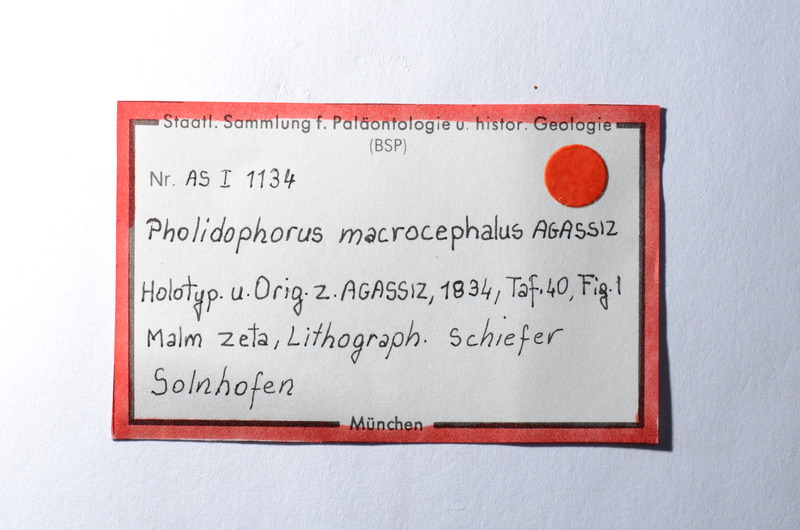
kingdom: Animalia
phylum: Chordata
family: Ankylophoridae
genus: Siemensichthys
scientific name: Siemensichthys macrocephalus
